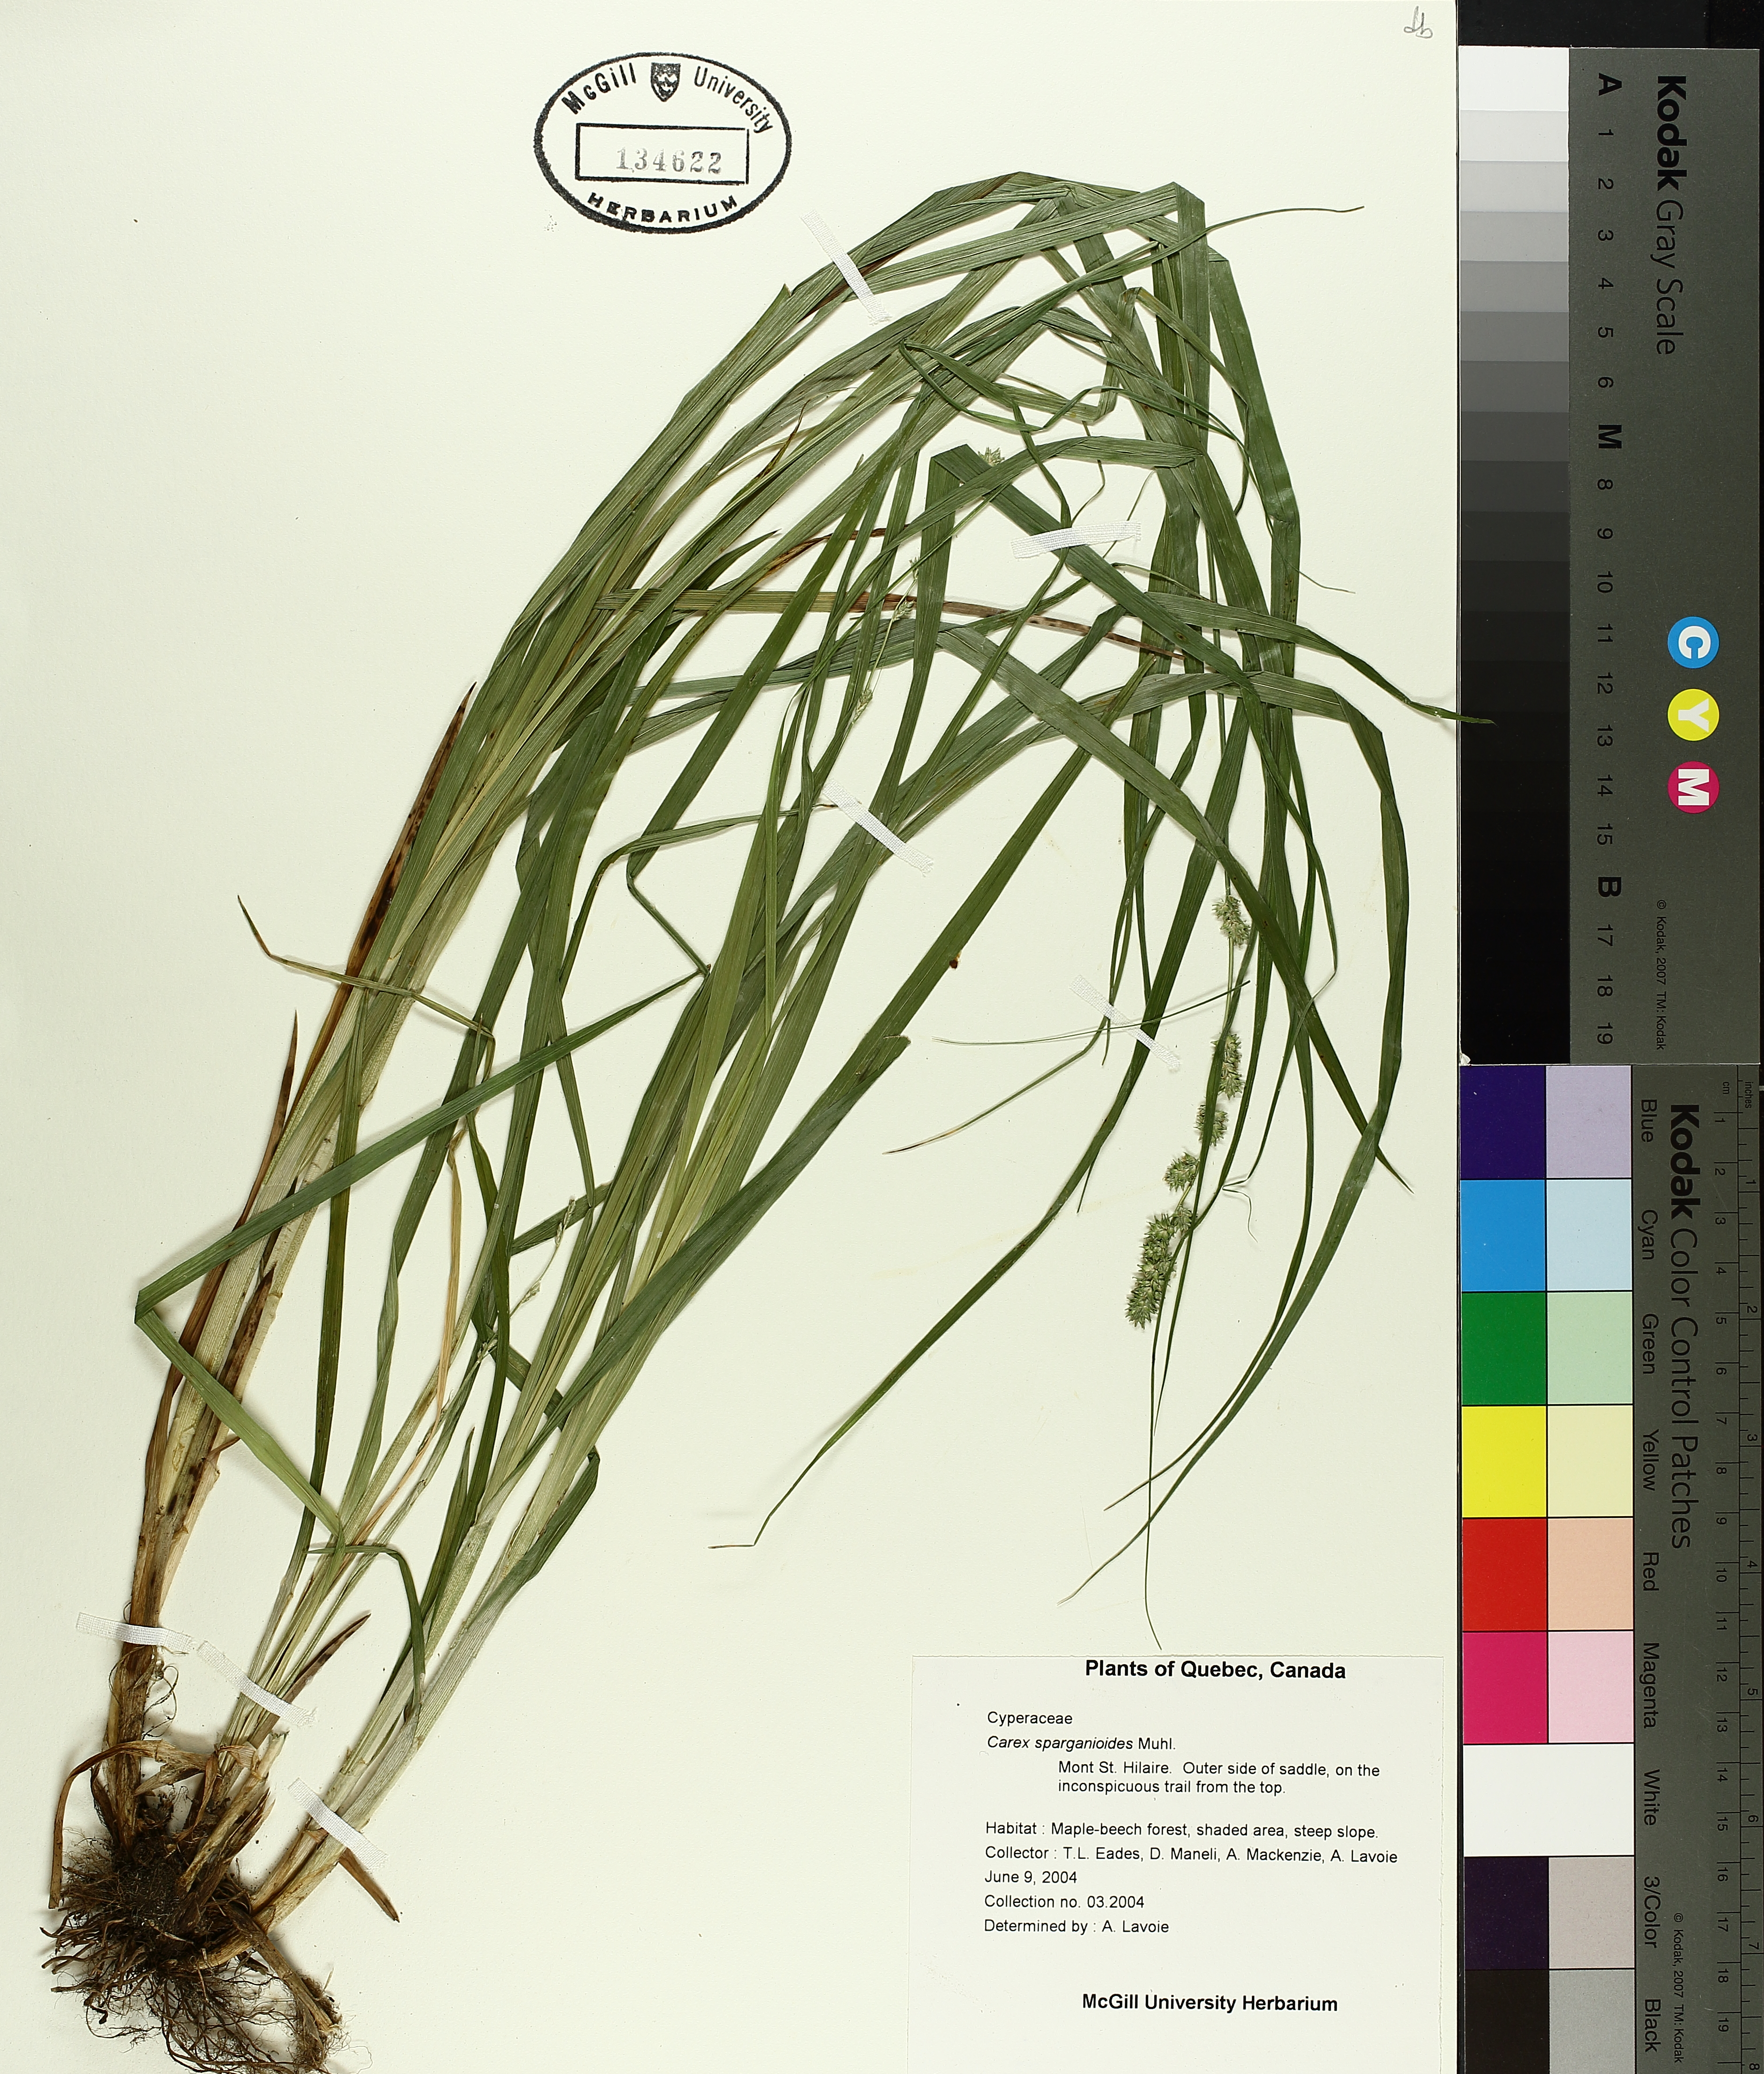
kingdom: Plantae
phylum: Tracheophyta
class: Liliopsida
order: Poales
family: Cyperaceae
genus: Carex
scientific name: Carex sparganioides
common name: Burreed sedge
